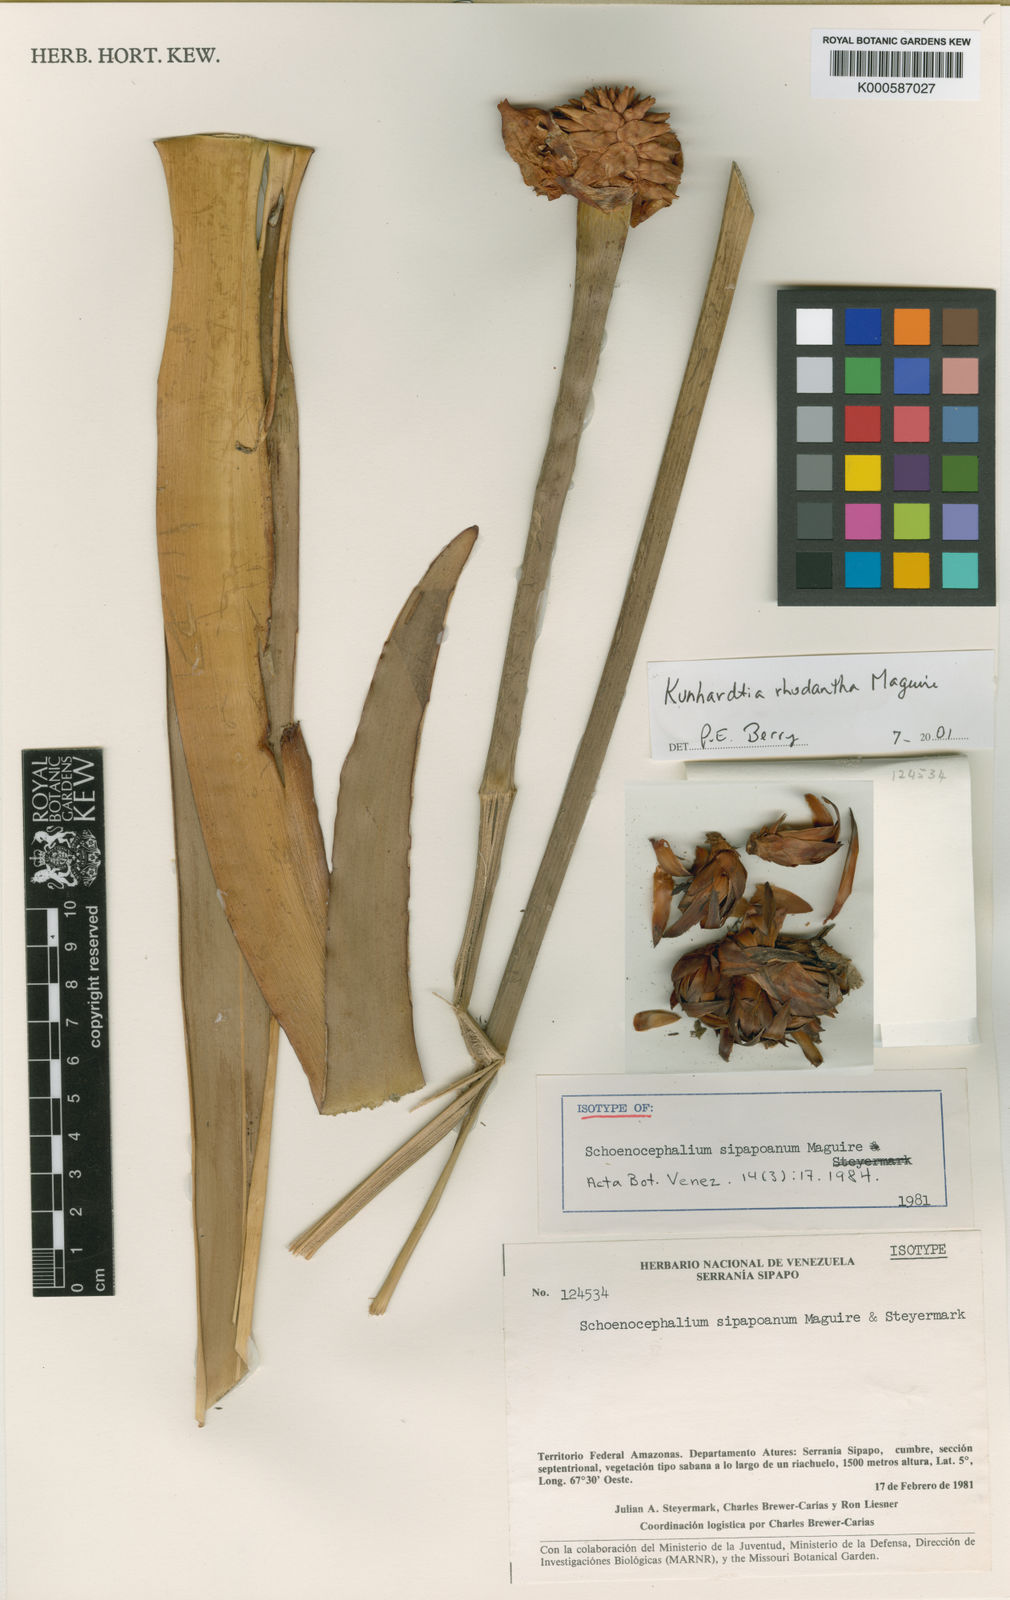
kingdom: Plantae
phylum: Tracheophyta
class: Liliopsida
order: Poales
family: Rapateaceae
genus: Kunhardtia
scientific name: Kunhardtia rhodantha
